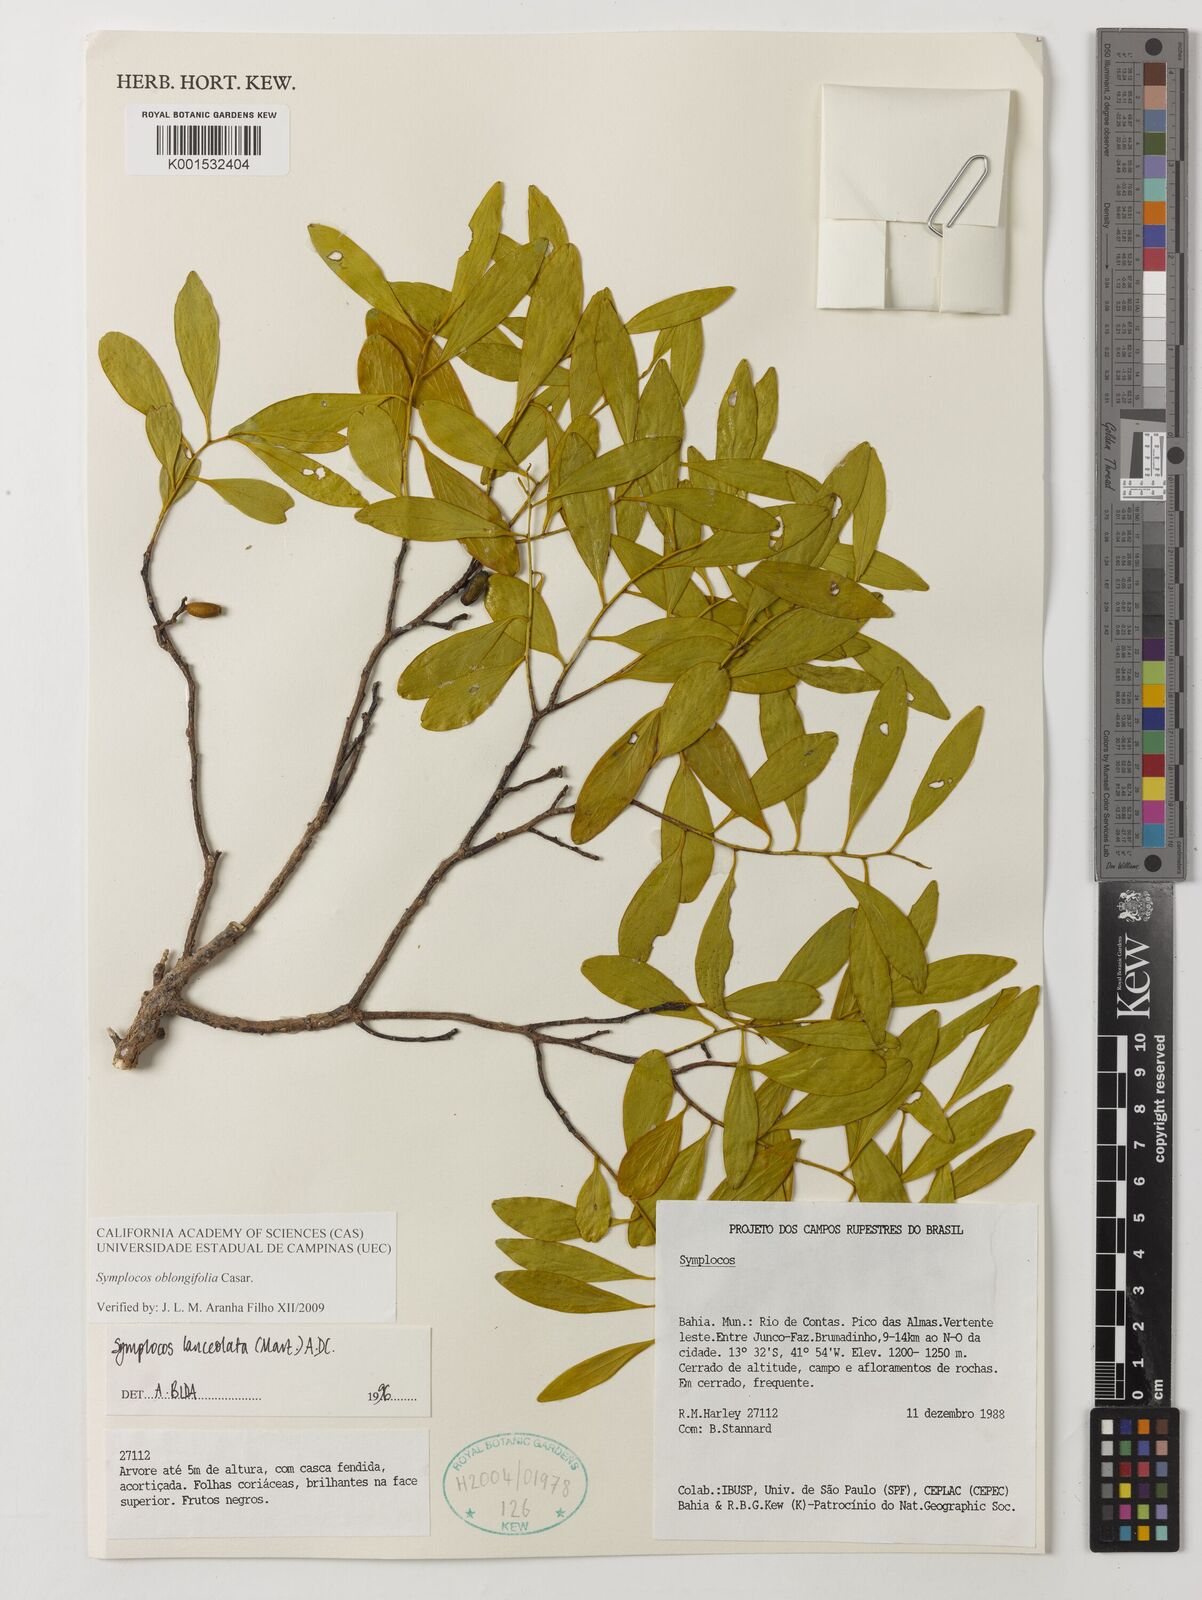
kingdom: Plantae
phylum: Tracheophyta
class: Magnoliopsida
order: Ericales
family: Symplocaceae
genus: Symplocos
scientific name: Symplocos oblongifolia
